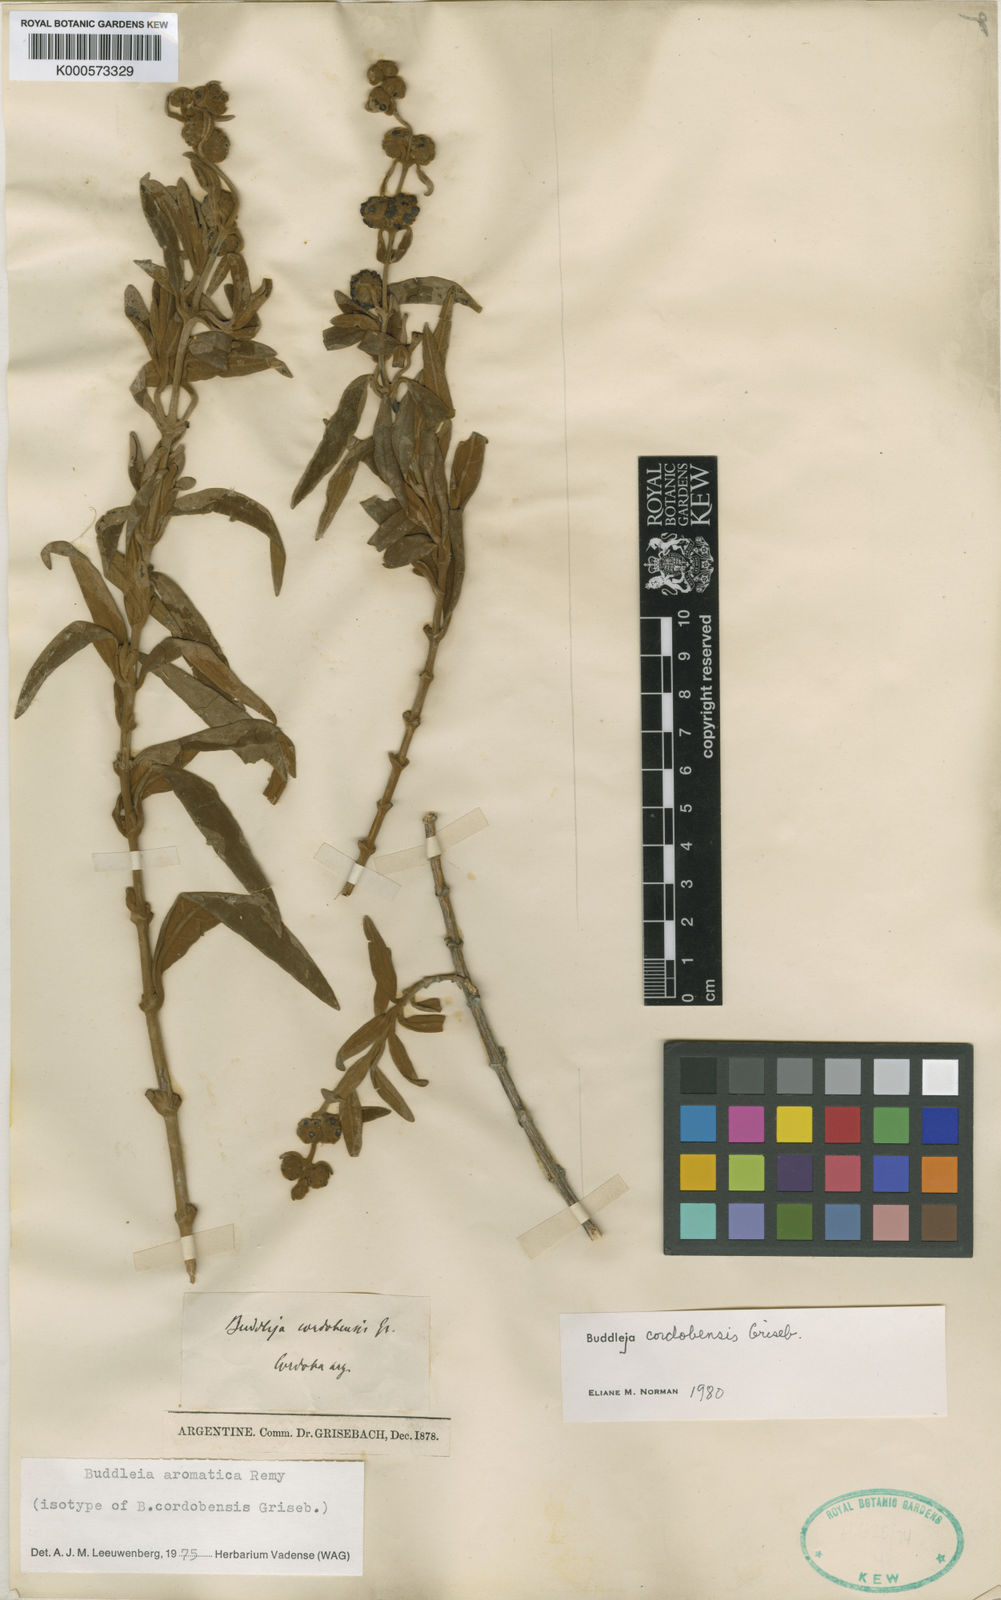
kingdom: Plantae
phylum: Tracheophyta
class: Magnoliopsida
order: Lamiales
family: Scrophulariaceae
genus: Buddleja
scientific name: Buddleja
